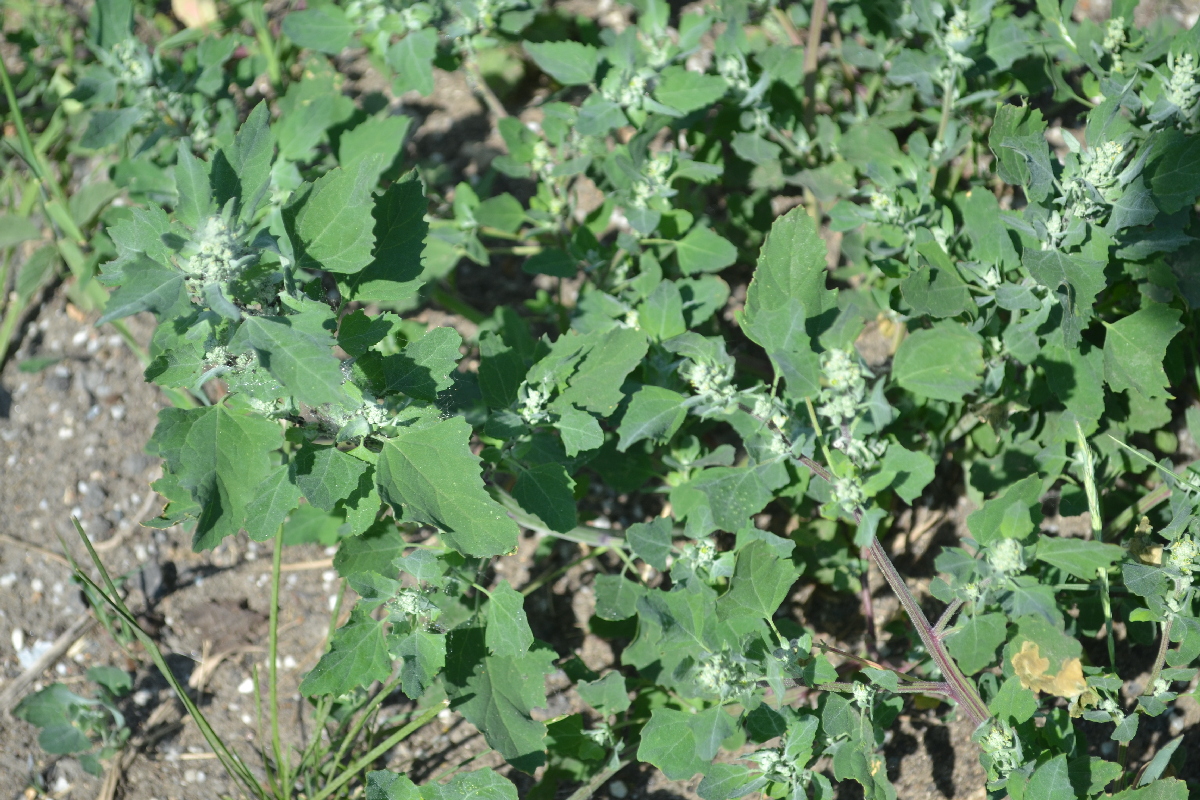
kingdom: Plantae
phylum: Tracheophyta
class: Magnoliopsida
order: Caryophyllales
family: Amaranthaceae
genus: Chenopodiastrum
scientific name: Chenopodiastrum hybridum
